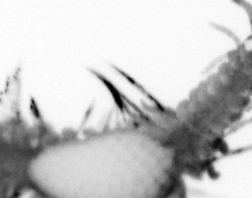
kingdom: Animalia
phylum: Annelida
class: Polychaeta
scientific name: Polychaeta
